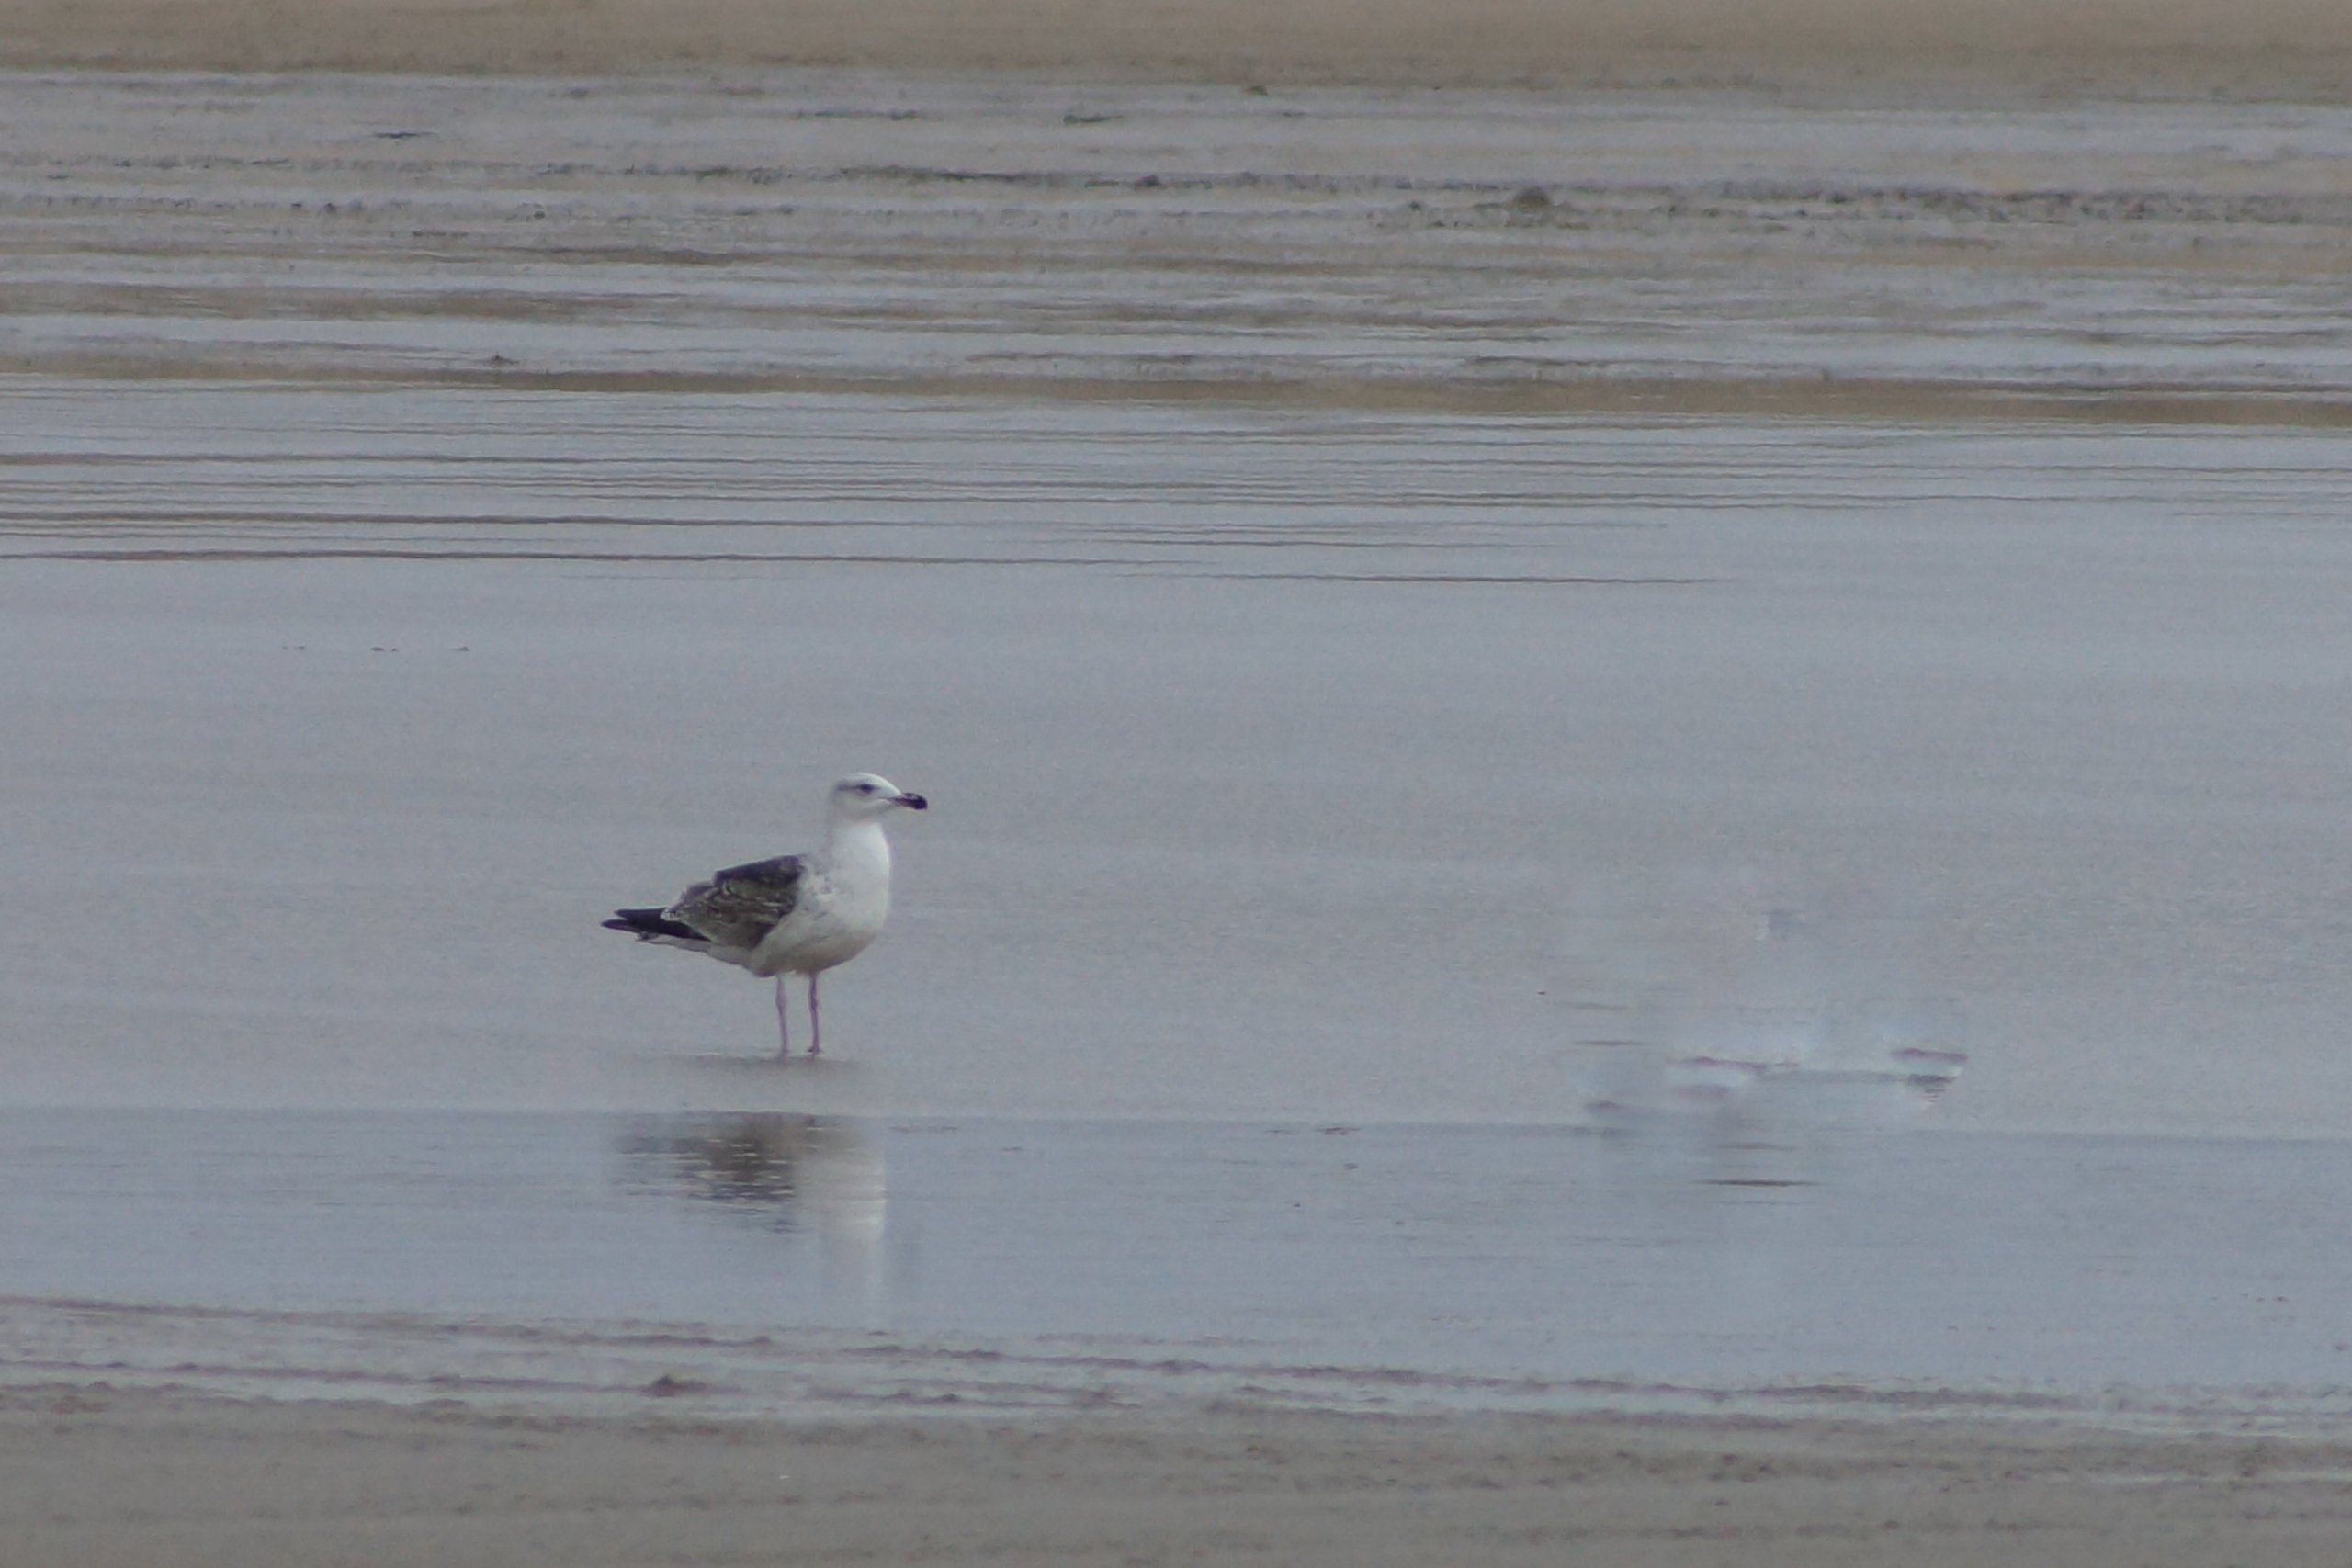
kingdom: Animalia
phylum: Chordata
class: Aves
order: Charadriiformes
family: Laridae
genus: Larus
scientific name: Larus marinus
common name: Svartbag
